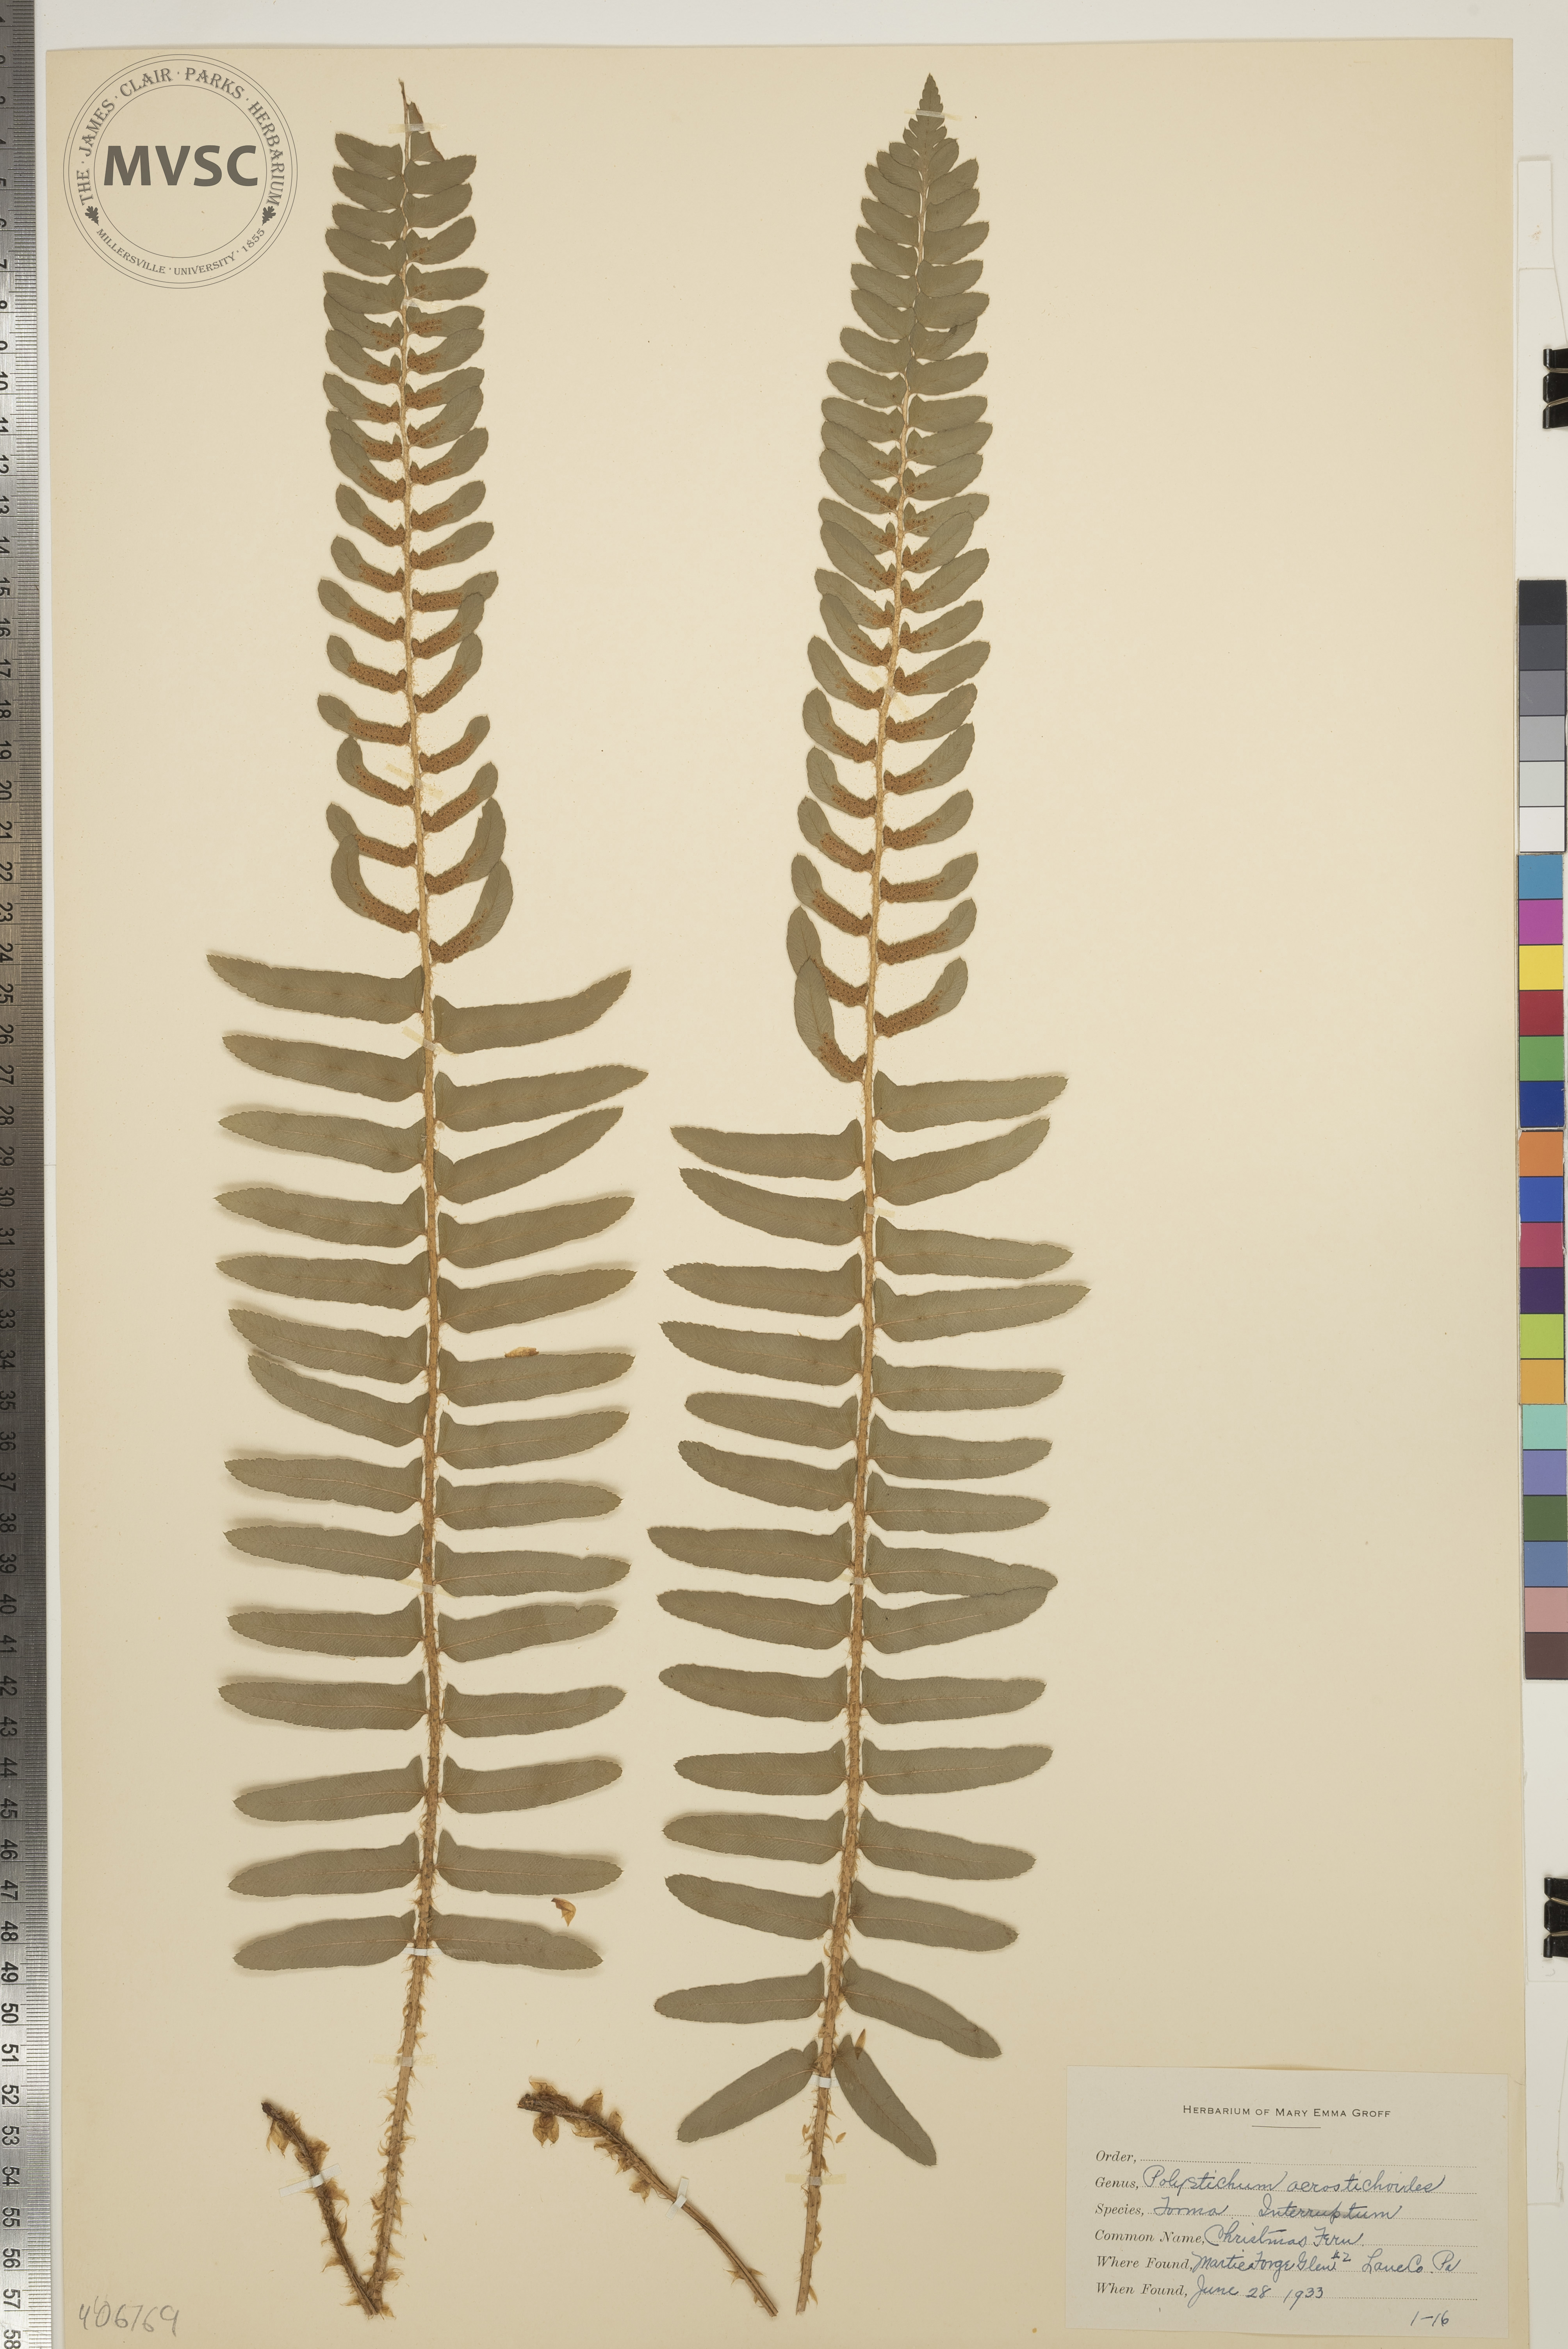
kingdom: Plantae
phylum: Tracheophyta
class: Polypodiopsida
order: Polypodiales
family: Dryopteridaceae
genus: Polystichum
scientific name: Polystichum acrostichoides
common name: Christmas Fern
